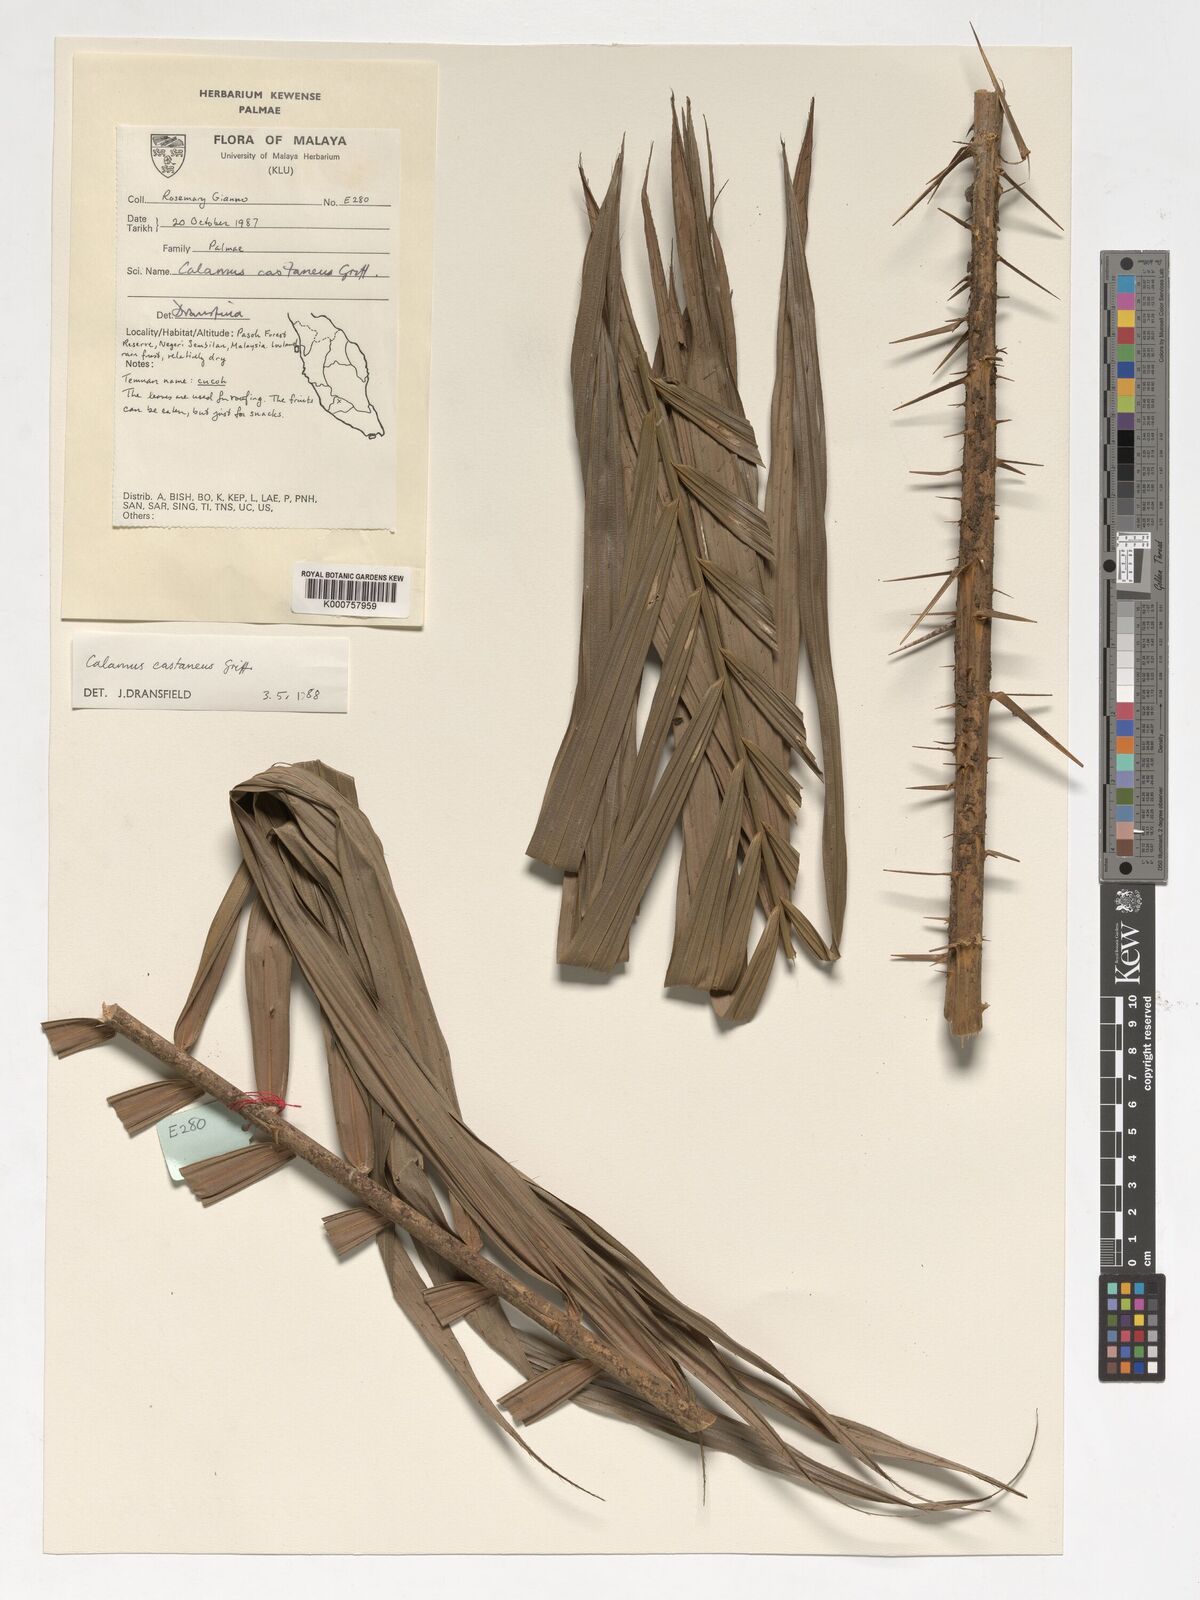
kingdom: Plantae
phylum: Tracheophyta
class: Liliopsida
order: Arecales
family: Arecaceae
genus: Calamus
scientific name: Calamus castaneus
